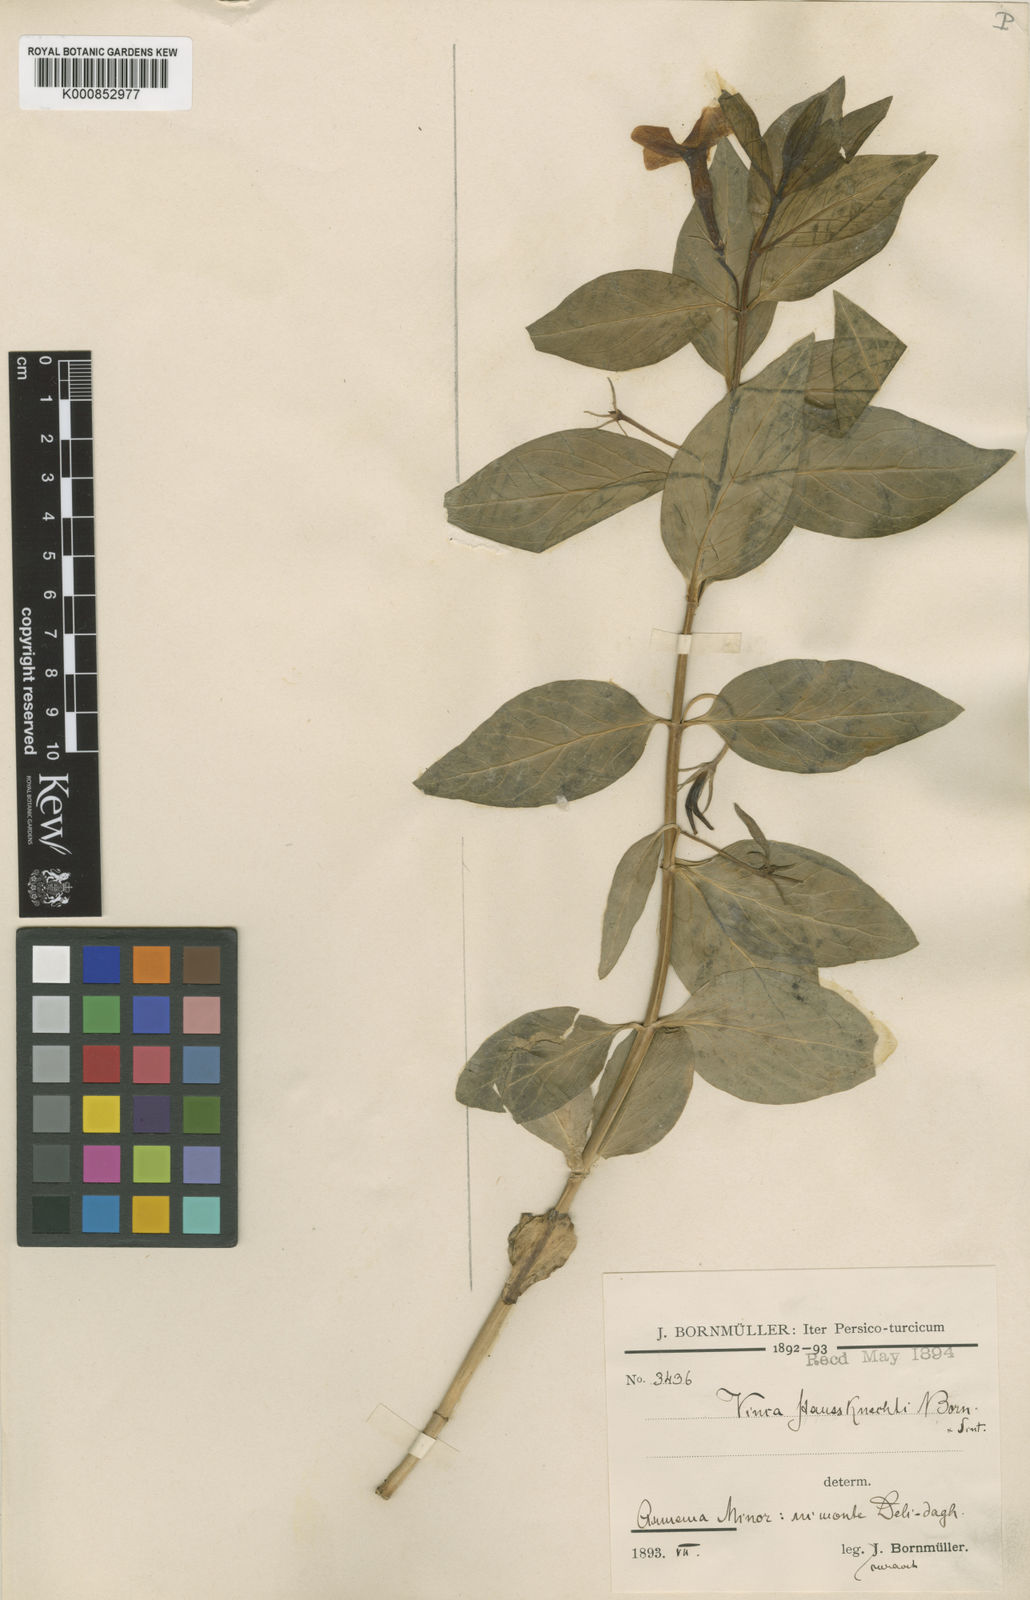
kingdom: Plantae
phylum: Tracheophyta
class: Magnoliopsida
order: Gentianales
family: Apocynaceae
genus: Vinca
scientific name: Vinca herbacea
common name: Herbaceous periwinkle
